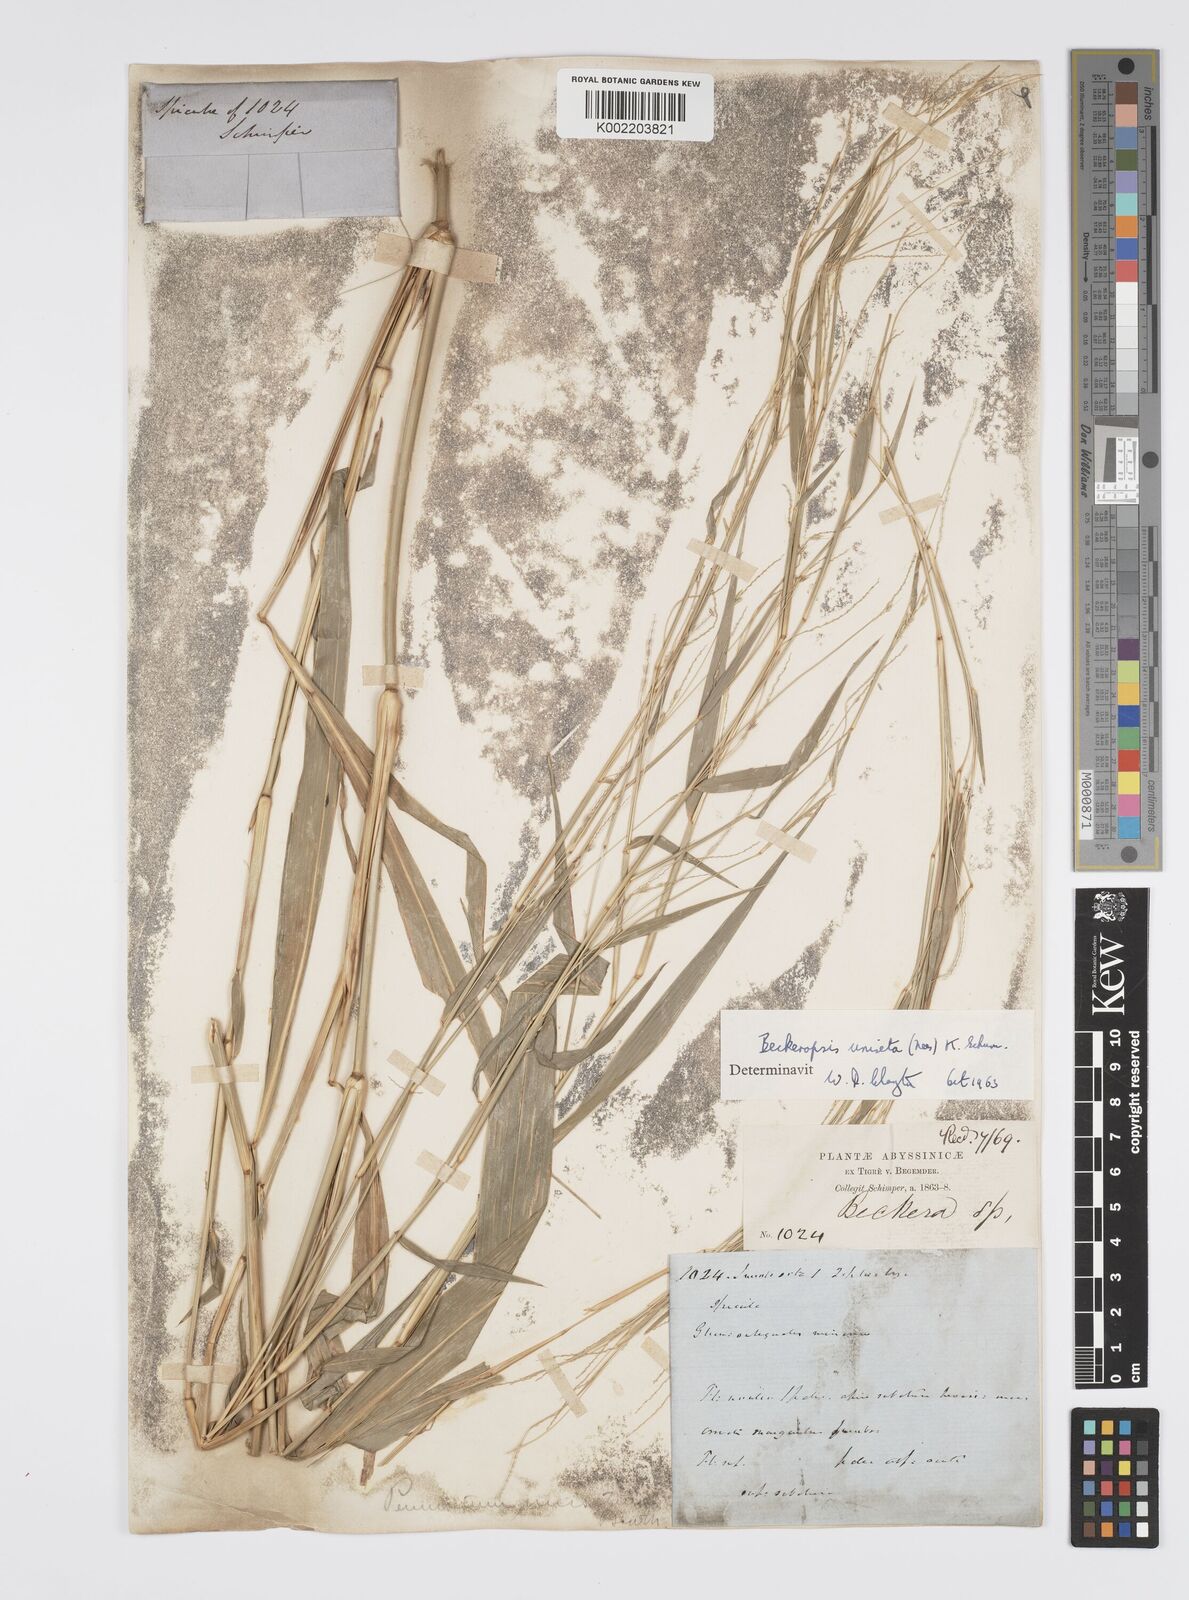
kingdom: Plantae
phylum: Tracheophyta
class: Liliopsida
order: Poales
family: Poaceae
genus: Cenchrus
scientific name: Cenchrus unisetus
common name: Natal grass
